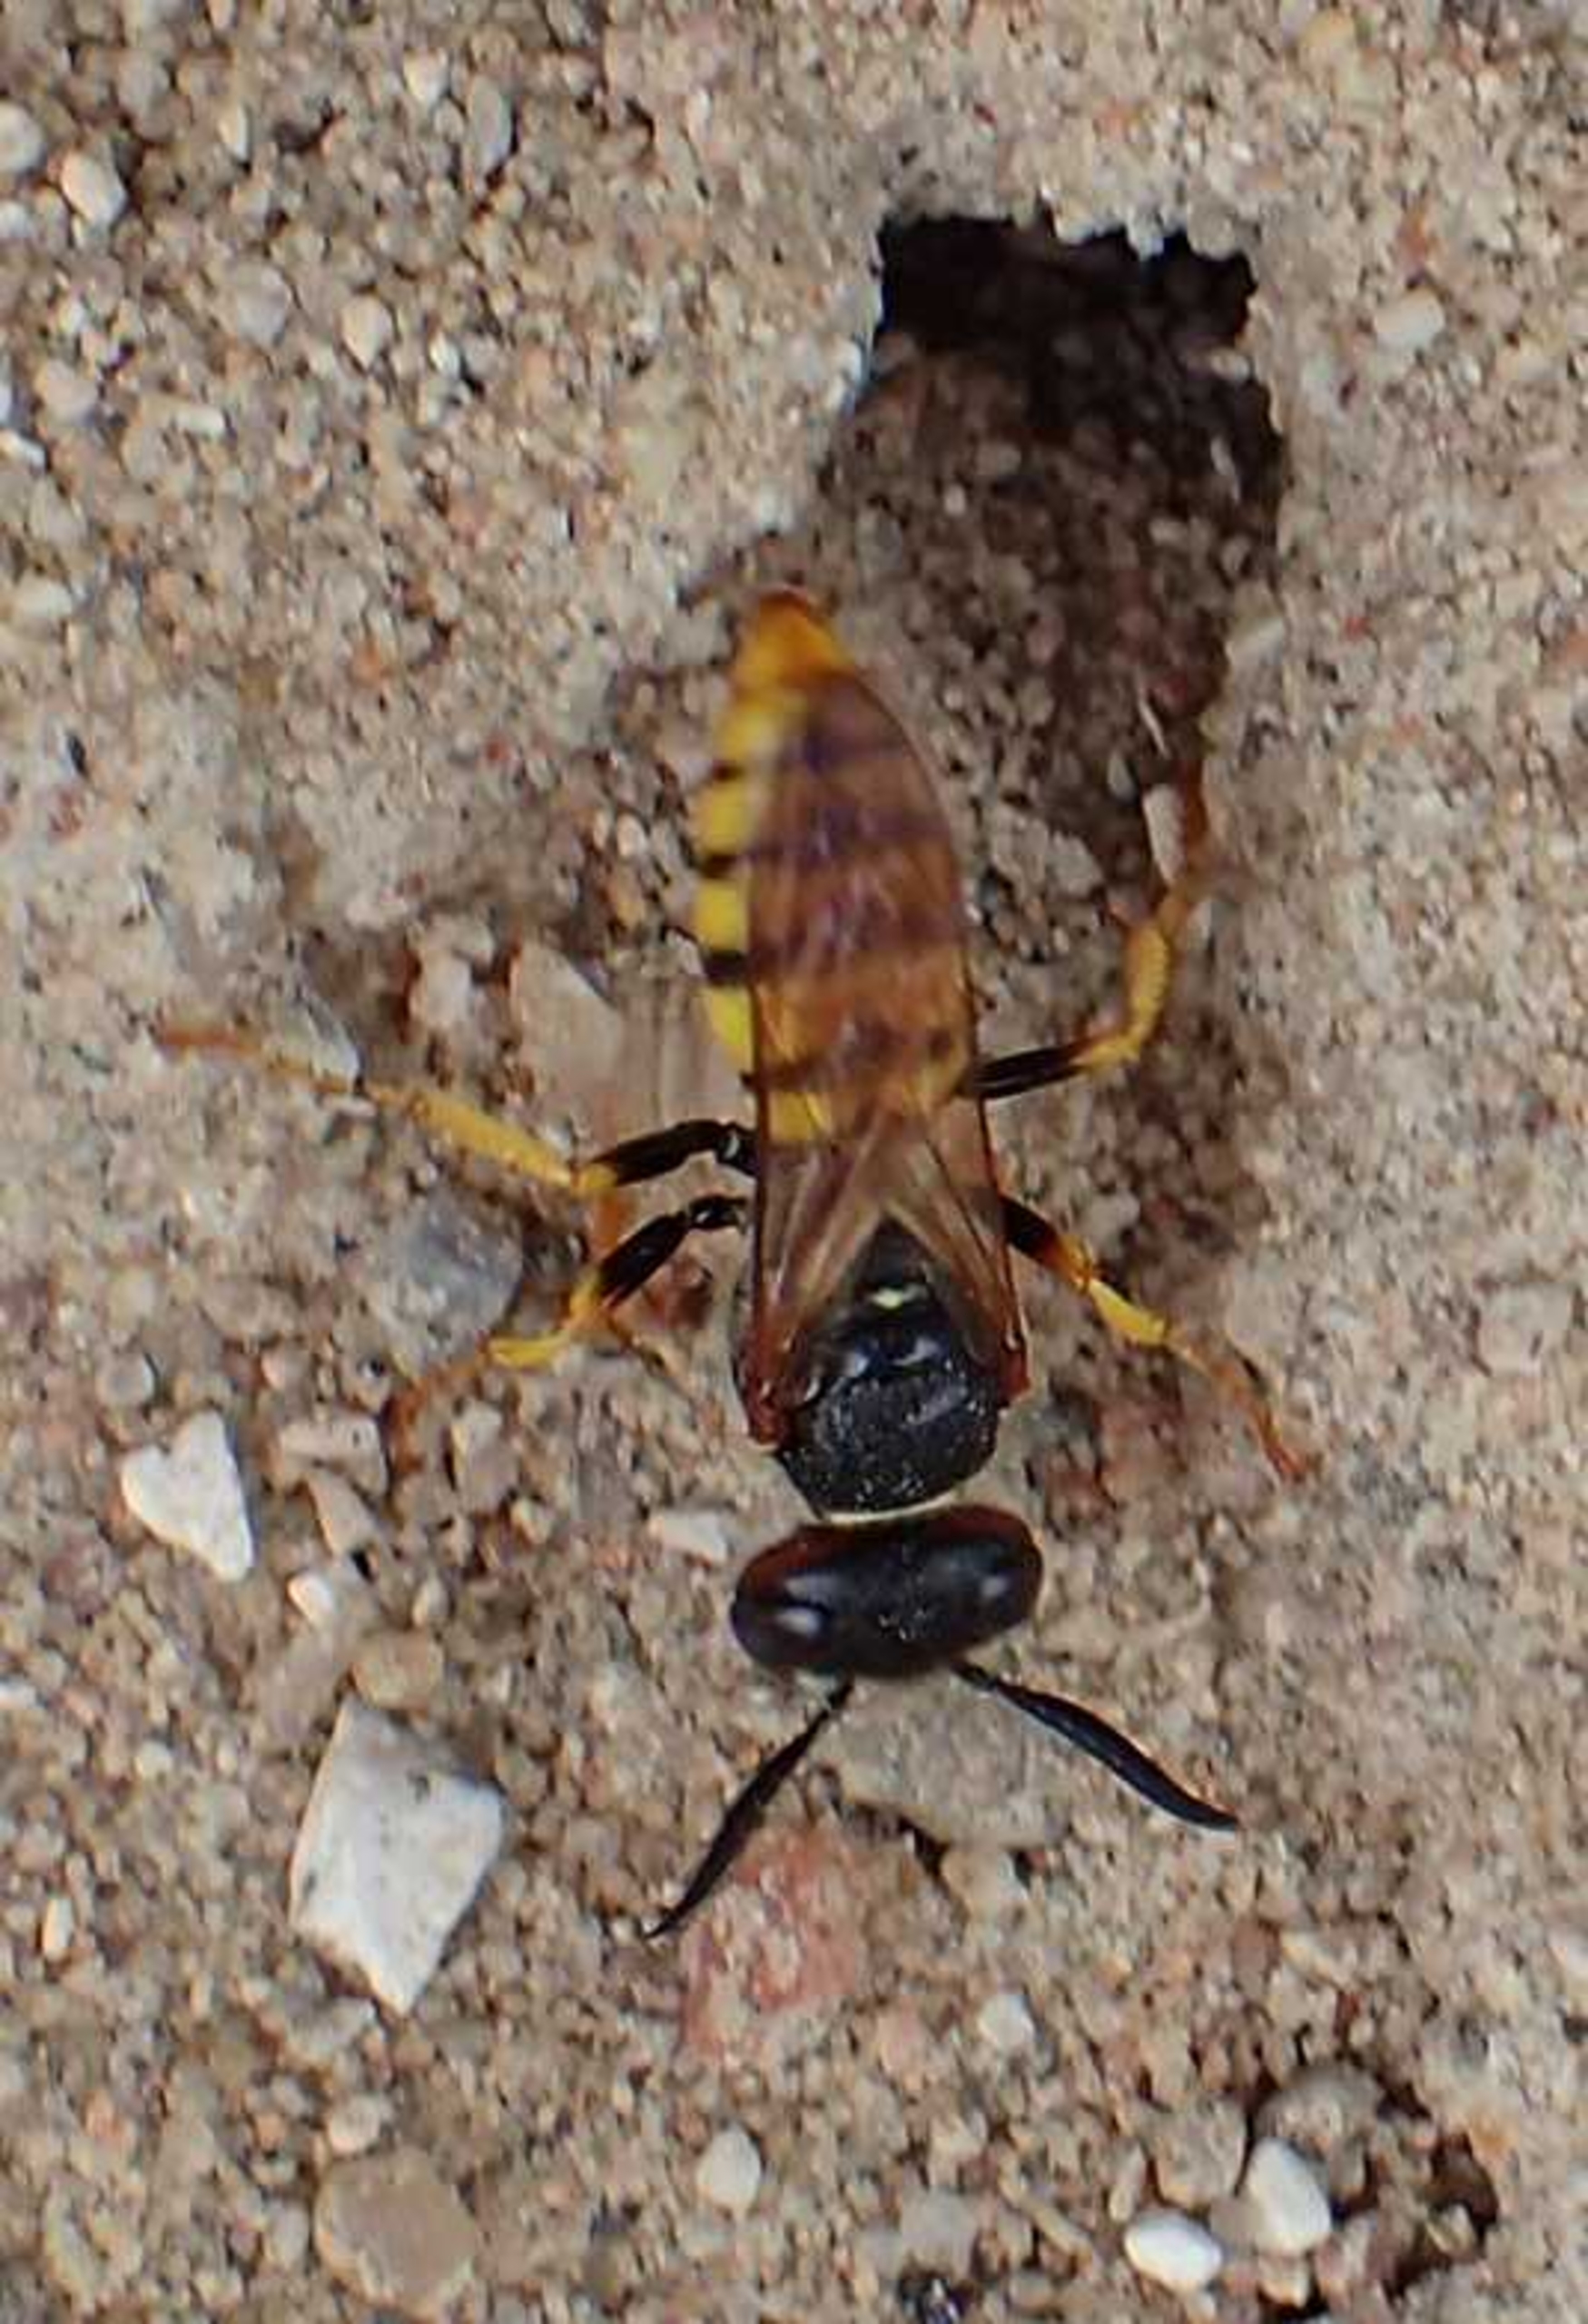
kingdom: Animalia
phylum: Arthropoda
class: Insecta
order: Hymenoptera
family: Crabronidae
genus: Philanthus
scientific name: Philanthus triangulum
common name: Biulv
